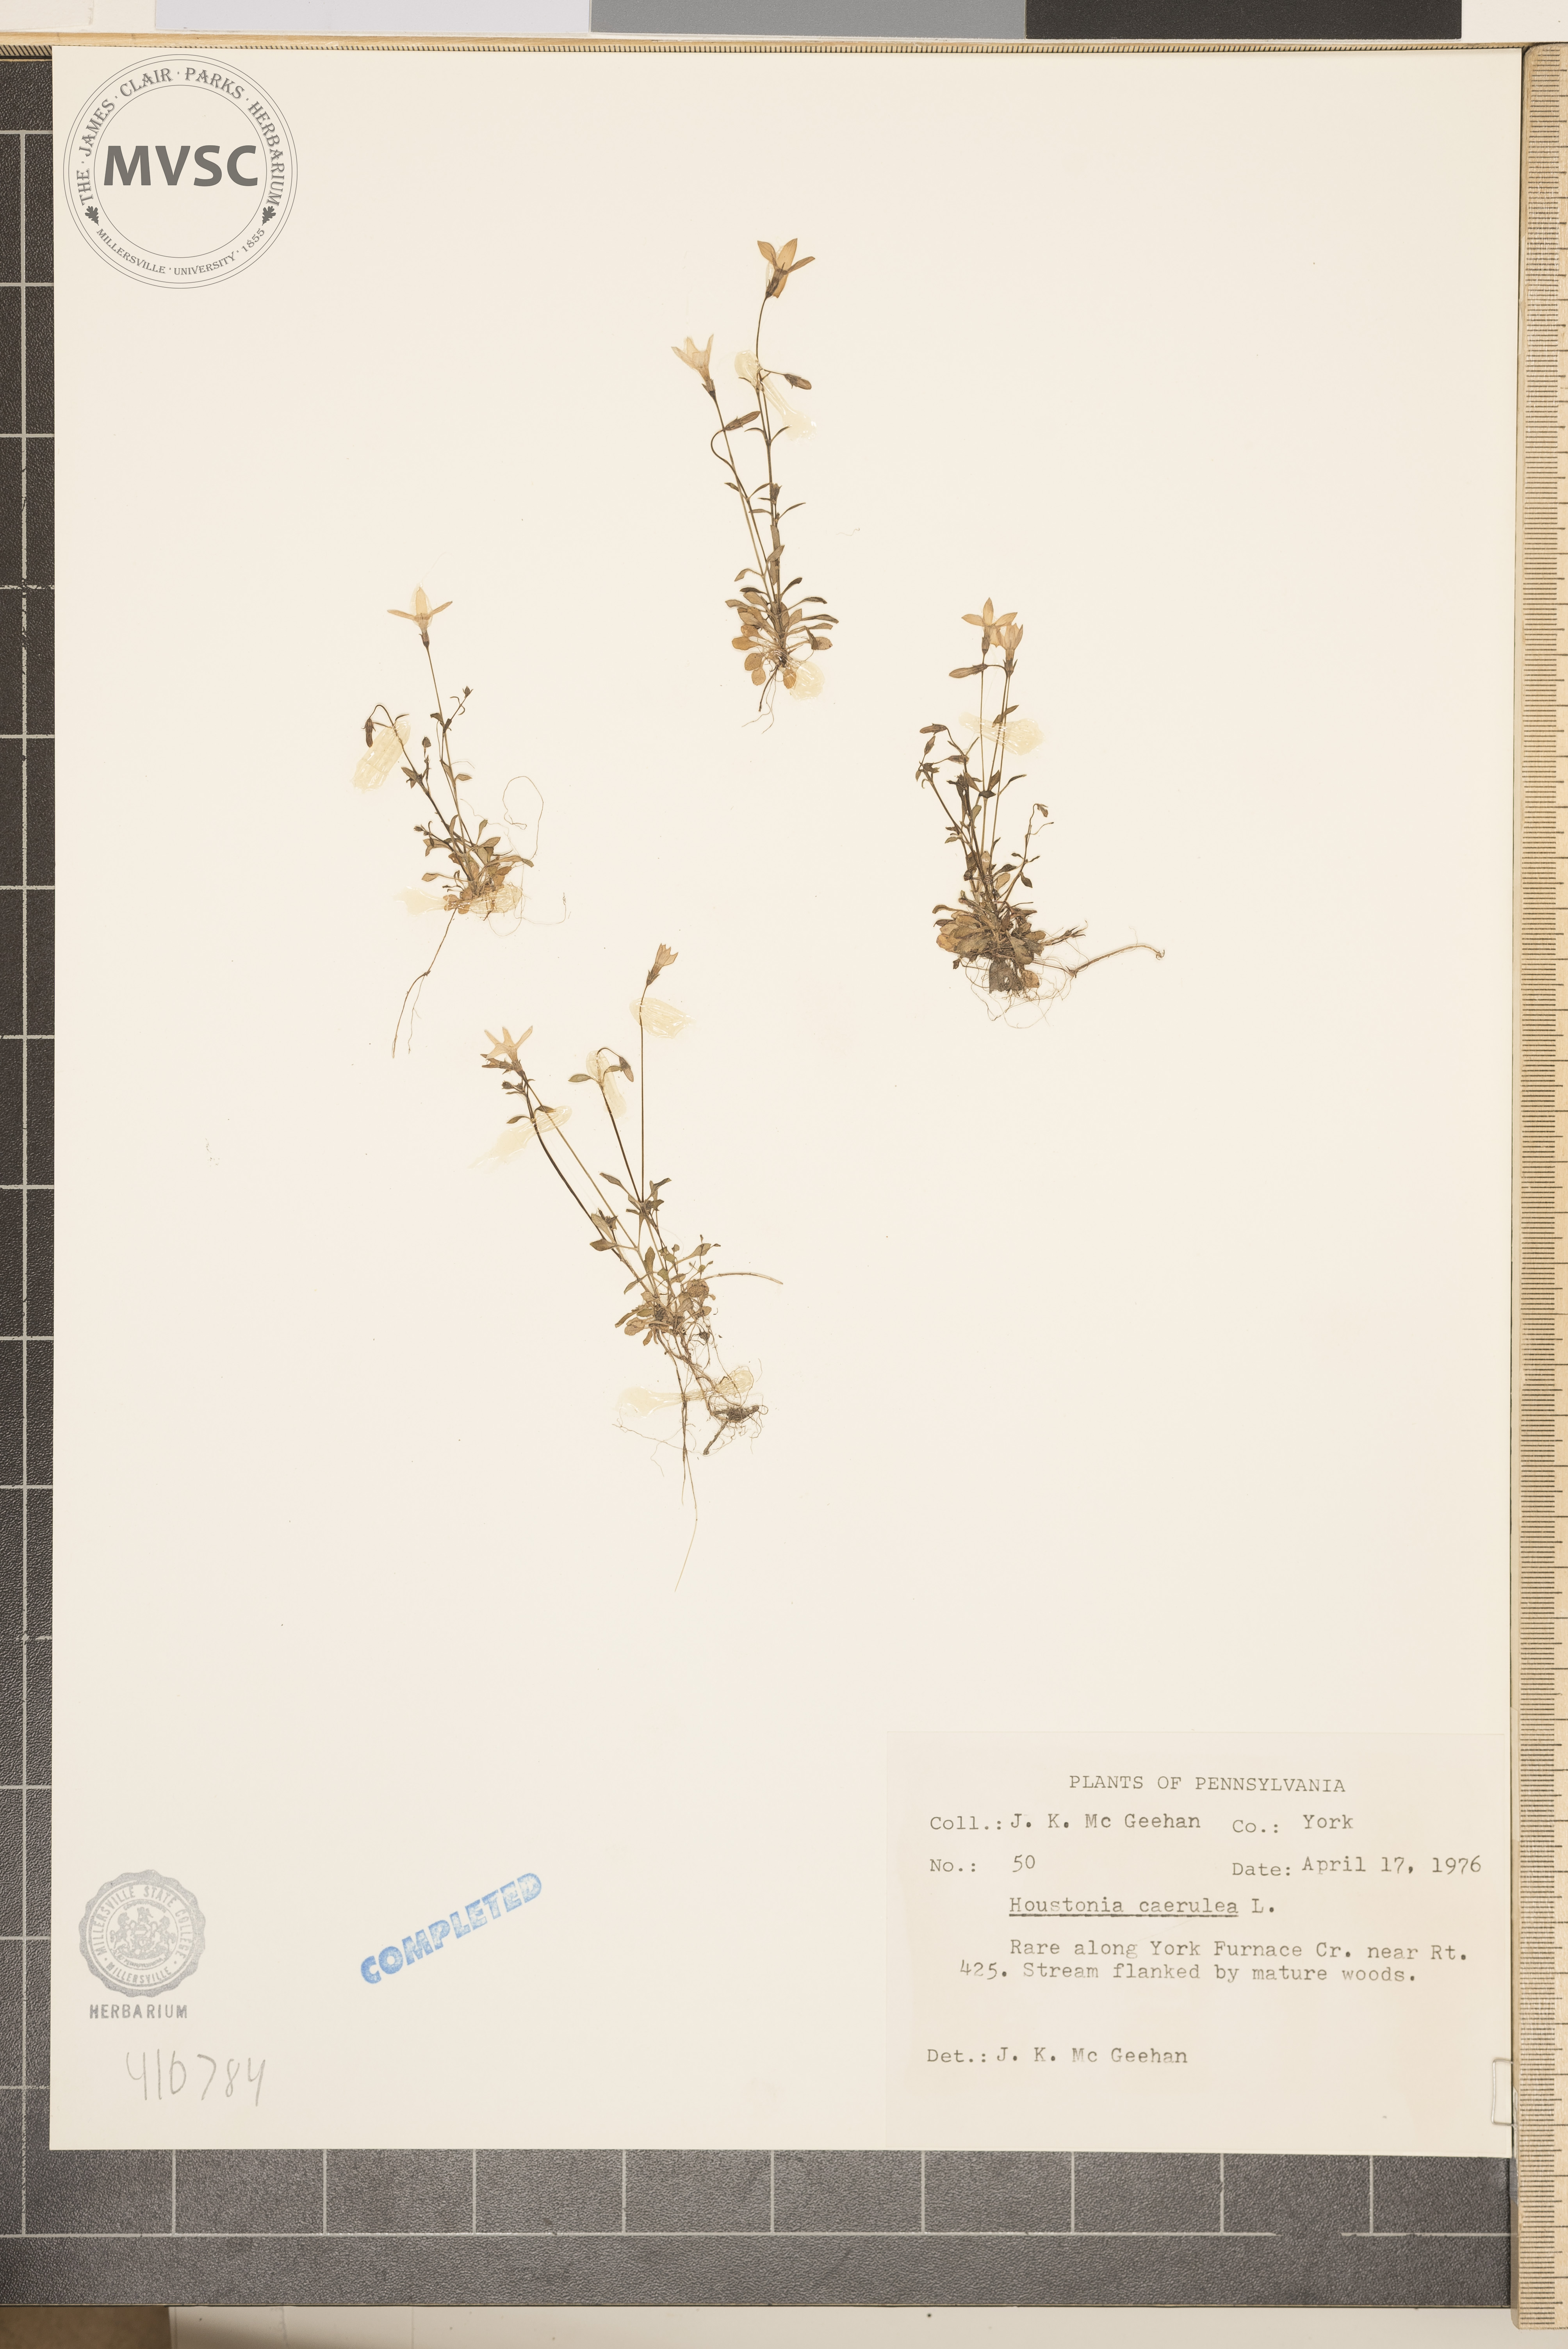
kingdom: Plantae
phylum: Tracheophyta
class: Magnoliopsida
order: Gentianales
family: Rubiaceae
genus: Houstonia
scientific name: Houstonia caerulea
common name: Bluets
